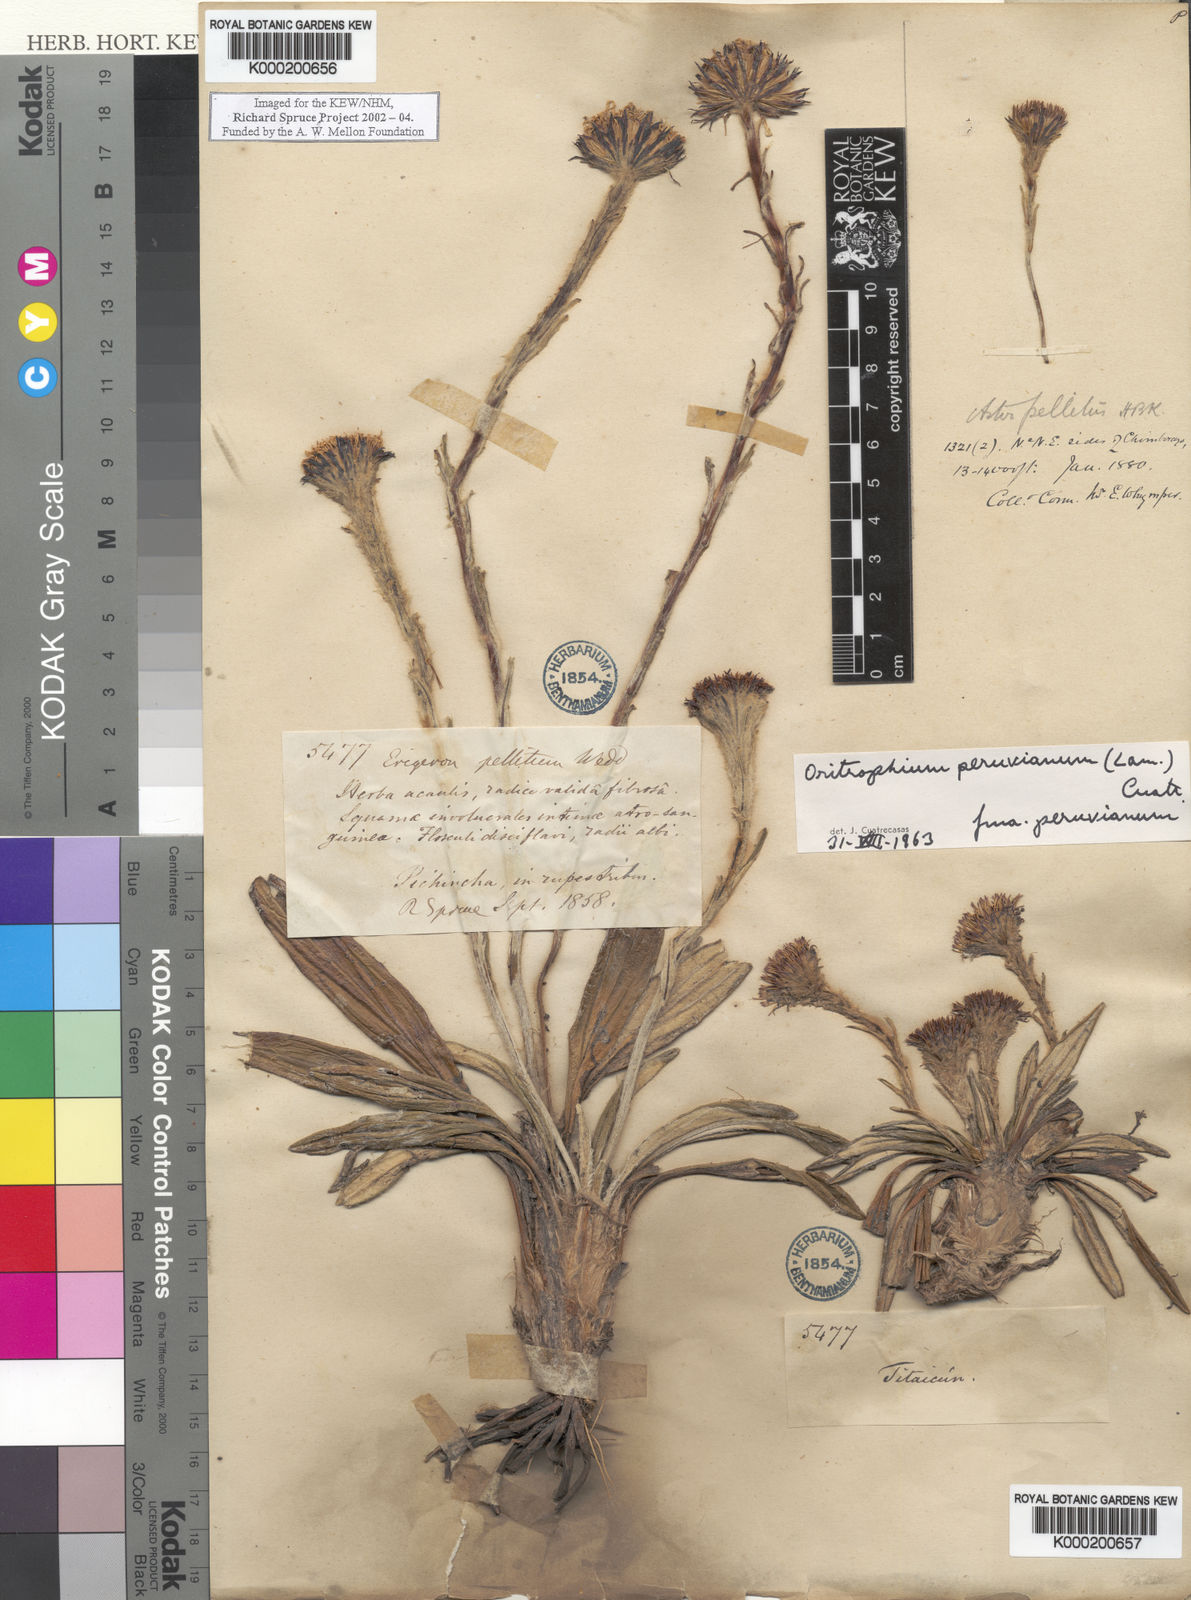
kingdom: Plantae
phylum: Tracheophyta
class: Magnoliopsida
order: Asterales
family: Asteraceae
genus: Oritrophium
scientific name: Oritrophium peruvianum
